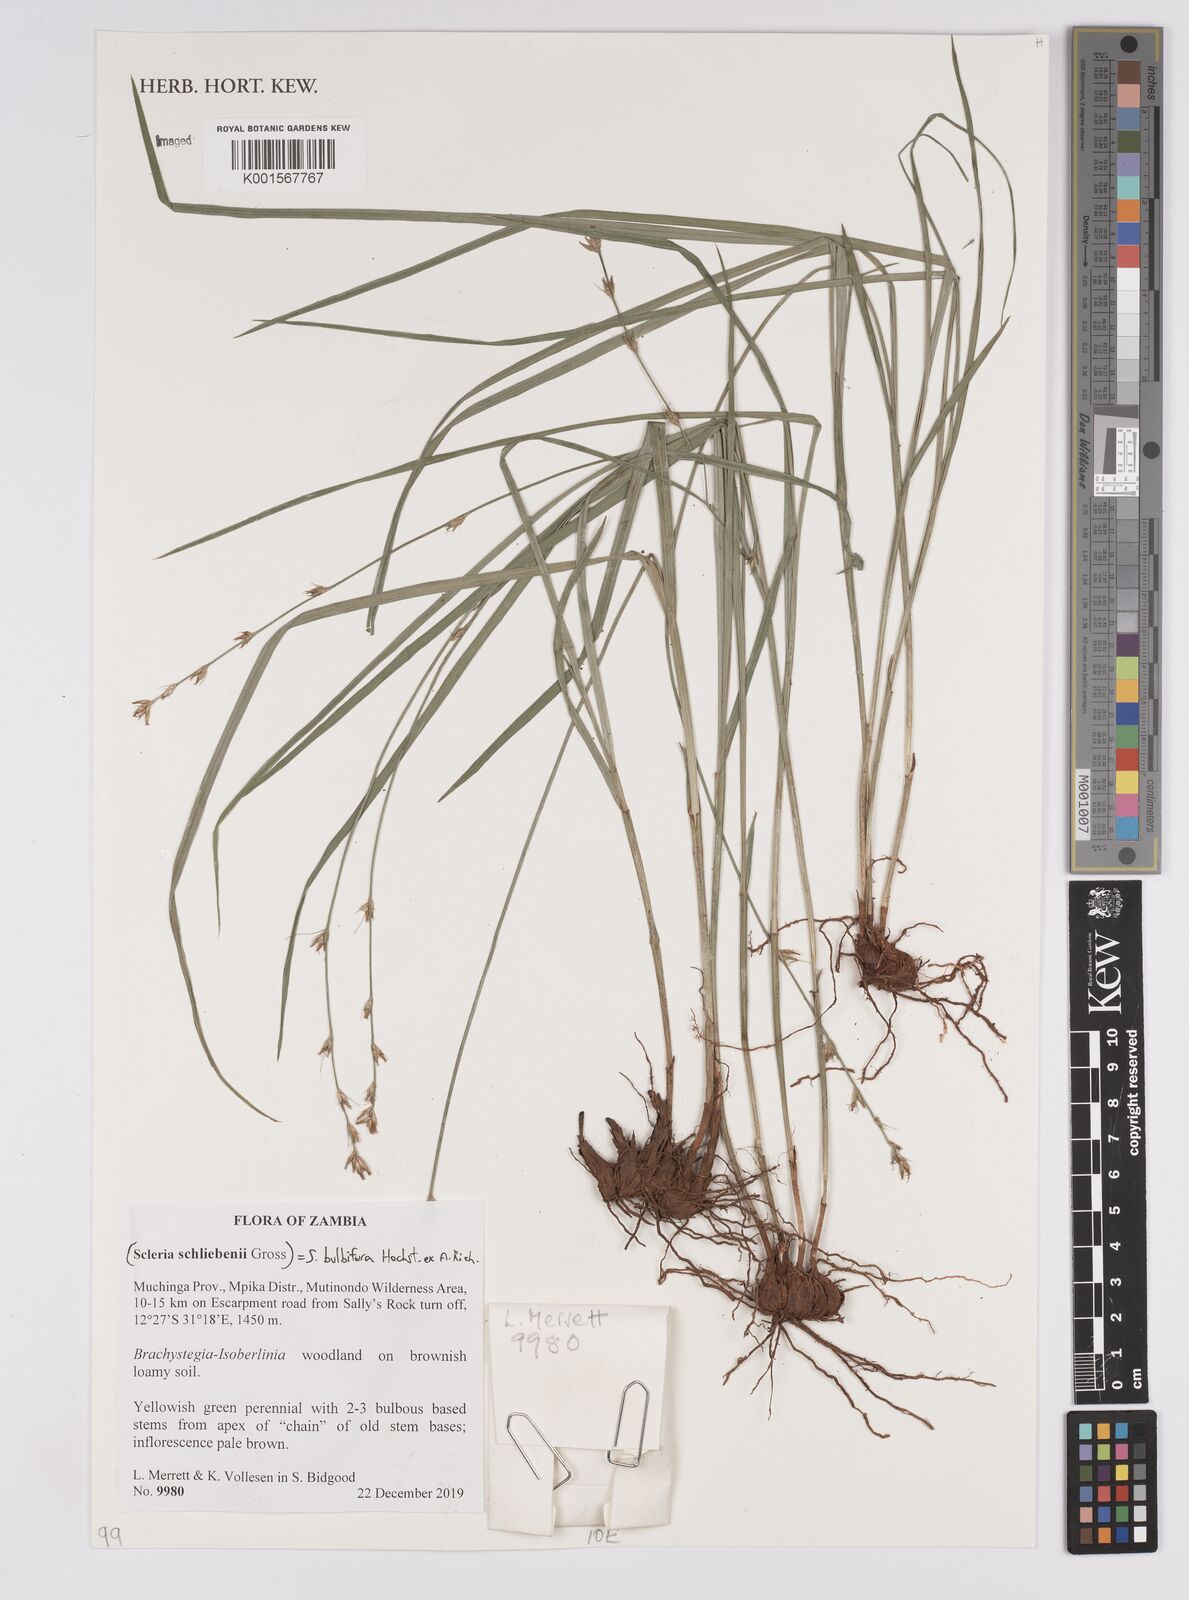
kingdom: Plantae
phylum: Tracheophyta
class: Liliopsida
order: Poales
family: Cyperaceae
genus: Scleria
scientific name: Scleria bulbifera
